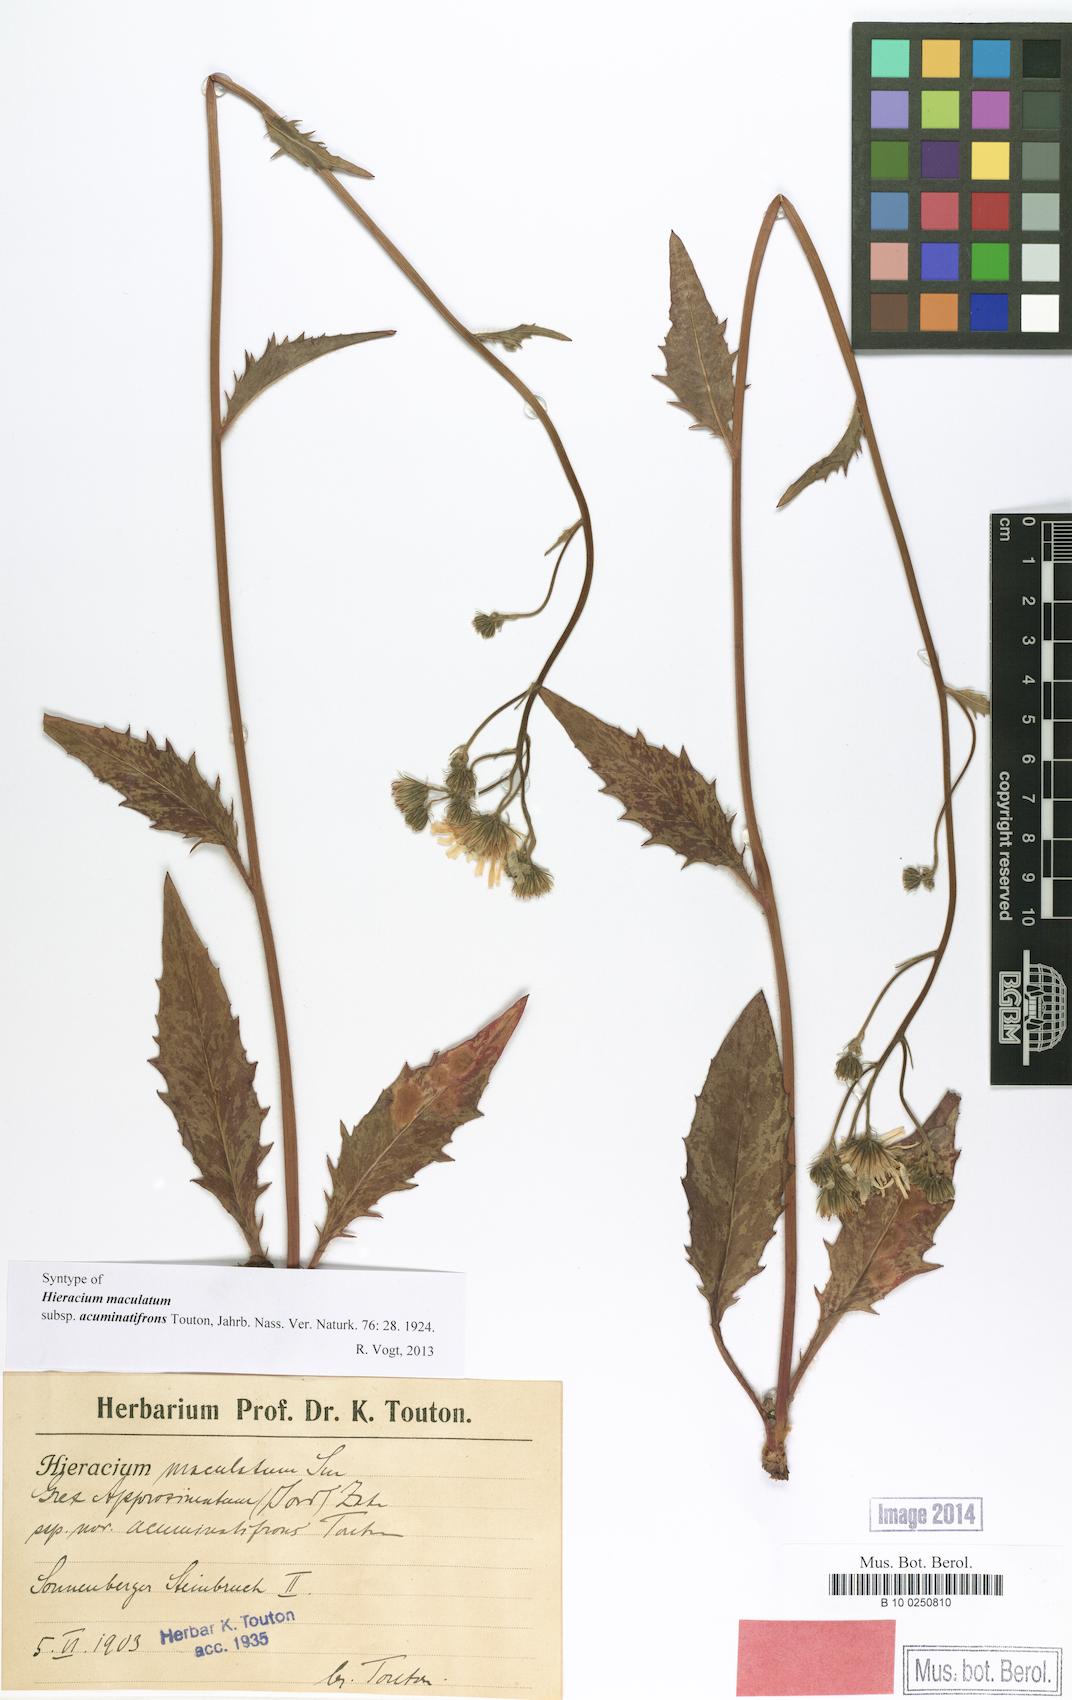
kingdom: Plantae
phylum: Tracheophyta
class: Magnoliopsida
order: Asterales
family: Asteraceae
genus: Hieracium
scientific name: Hieracium maculatum
